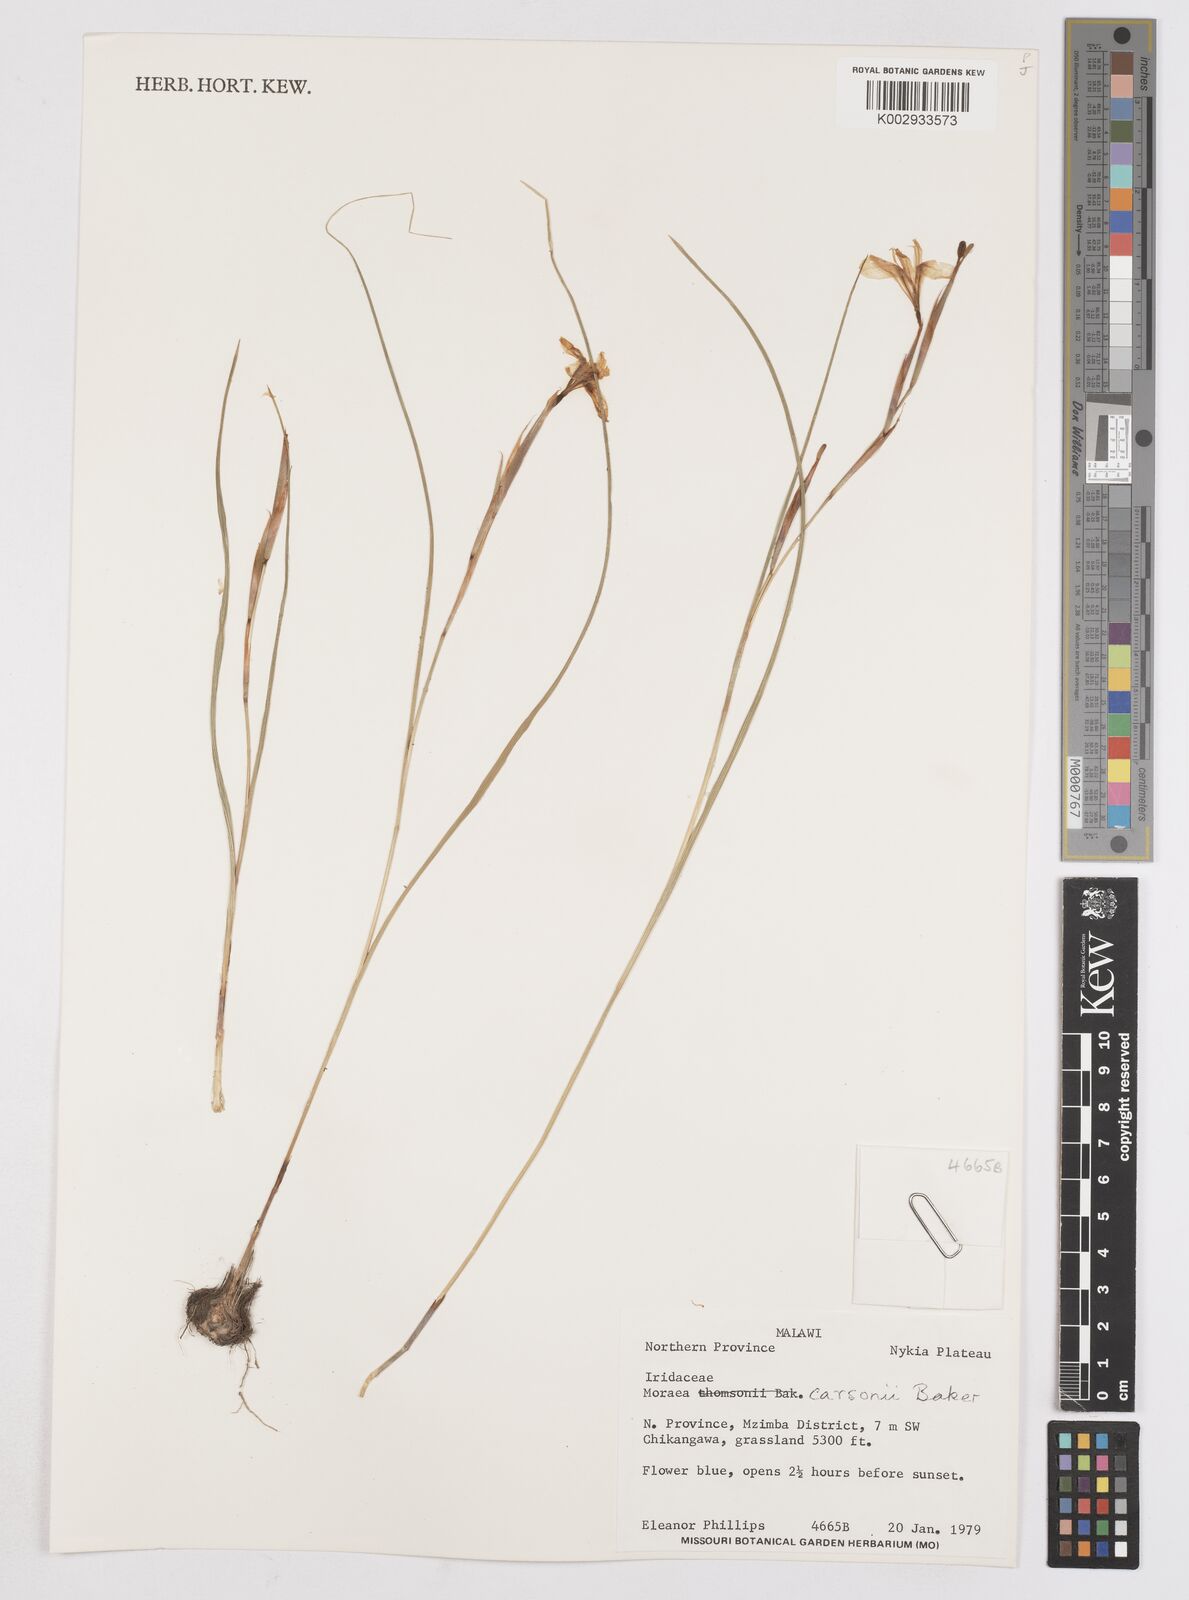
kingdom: Plantae
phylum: Tracheophyta
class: Liliopsida
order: Asparagales
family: Iridaceae
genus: Moraea
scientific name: Moraea carsonii
